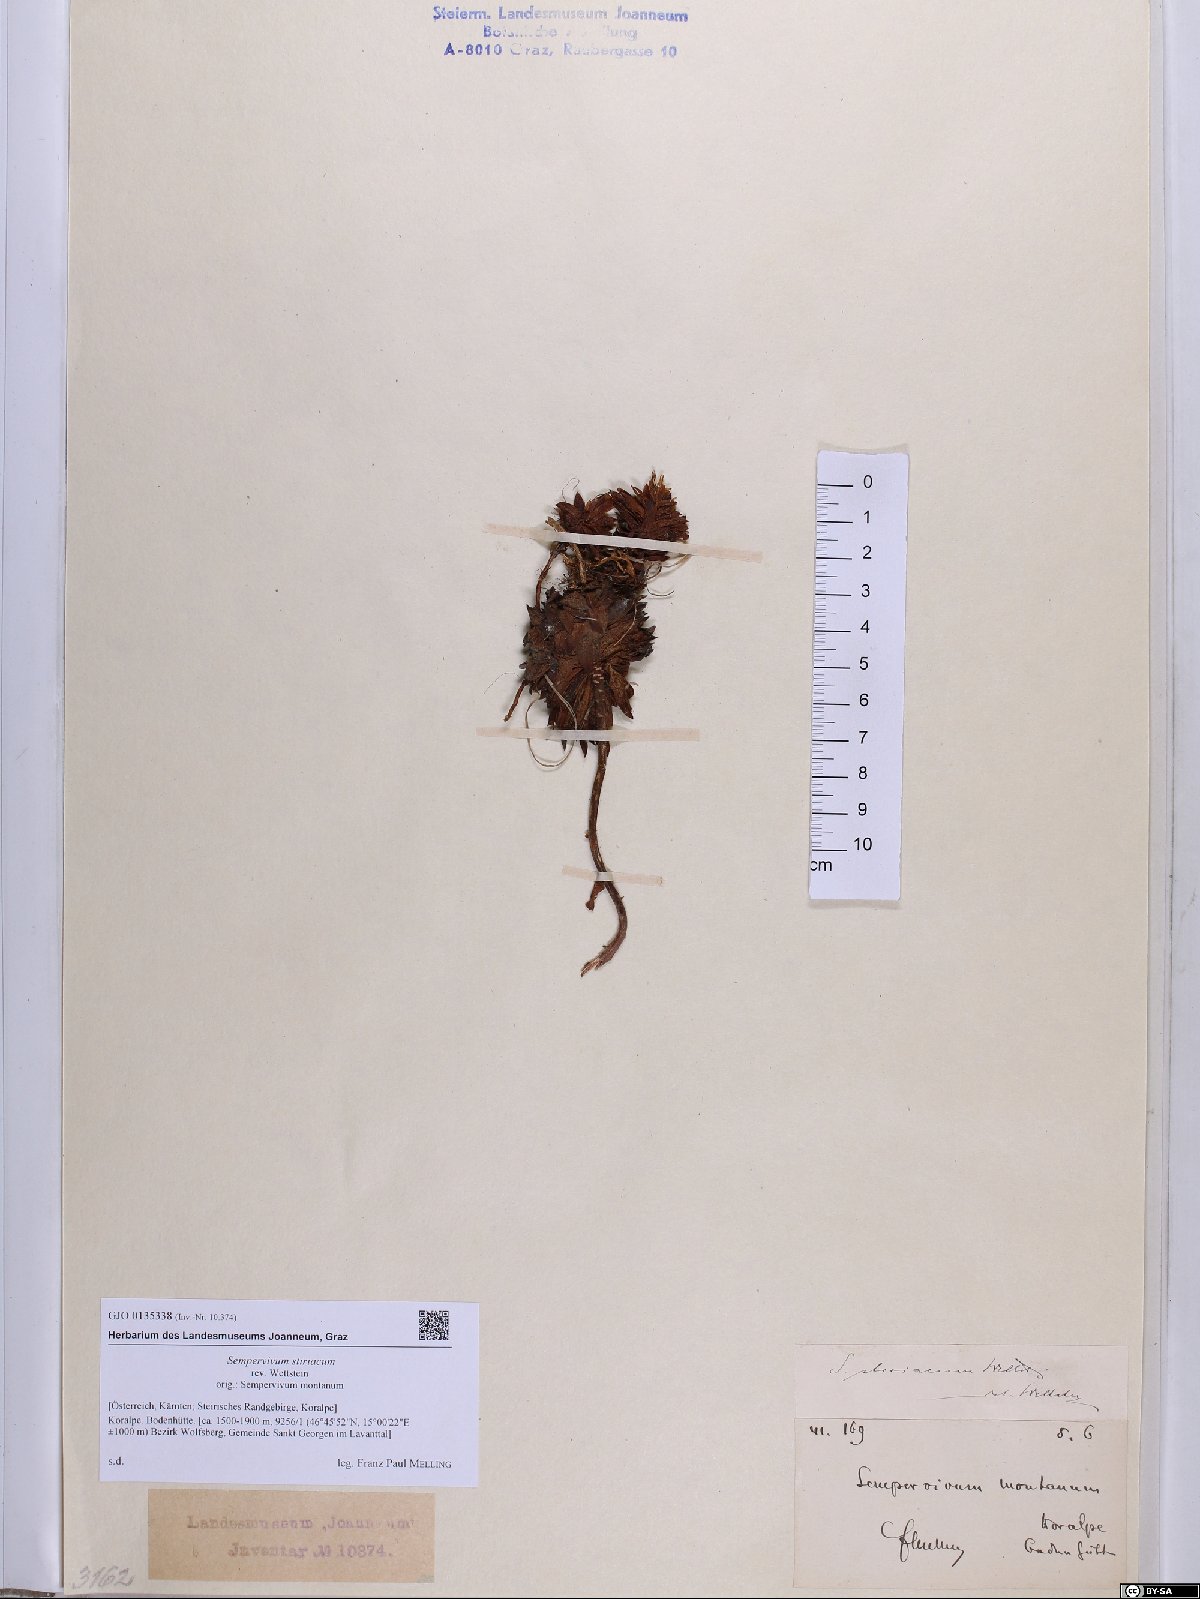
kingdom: Plantae
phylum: Tracheophyta
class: Magnoliopsida
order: Saxifragales
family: Crassulaceae
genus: Sempervivum
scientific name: Sempervivum montanum
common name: Mountain house-leek
